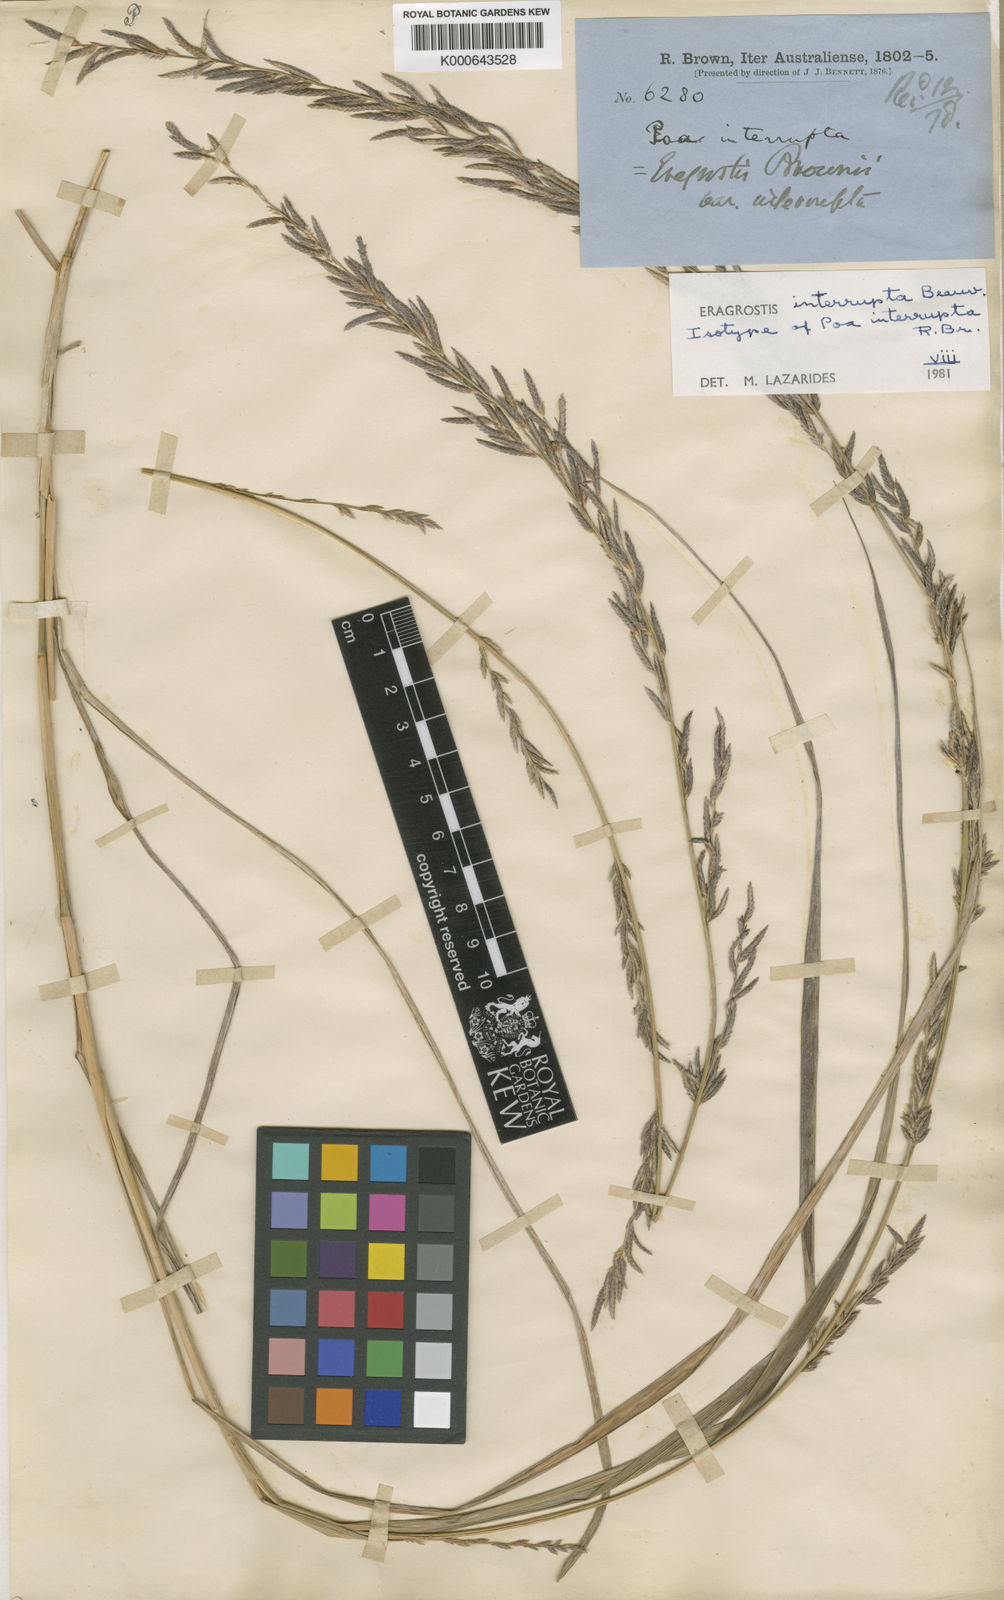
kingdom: Plantae
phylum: Tracheophyta
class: Liliopsida
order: Poales
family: Poaceae
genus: Eragrostis
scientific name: Eragrostis interrupta
